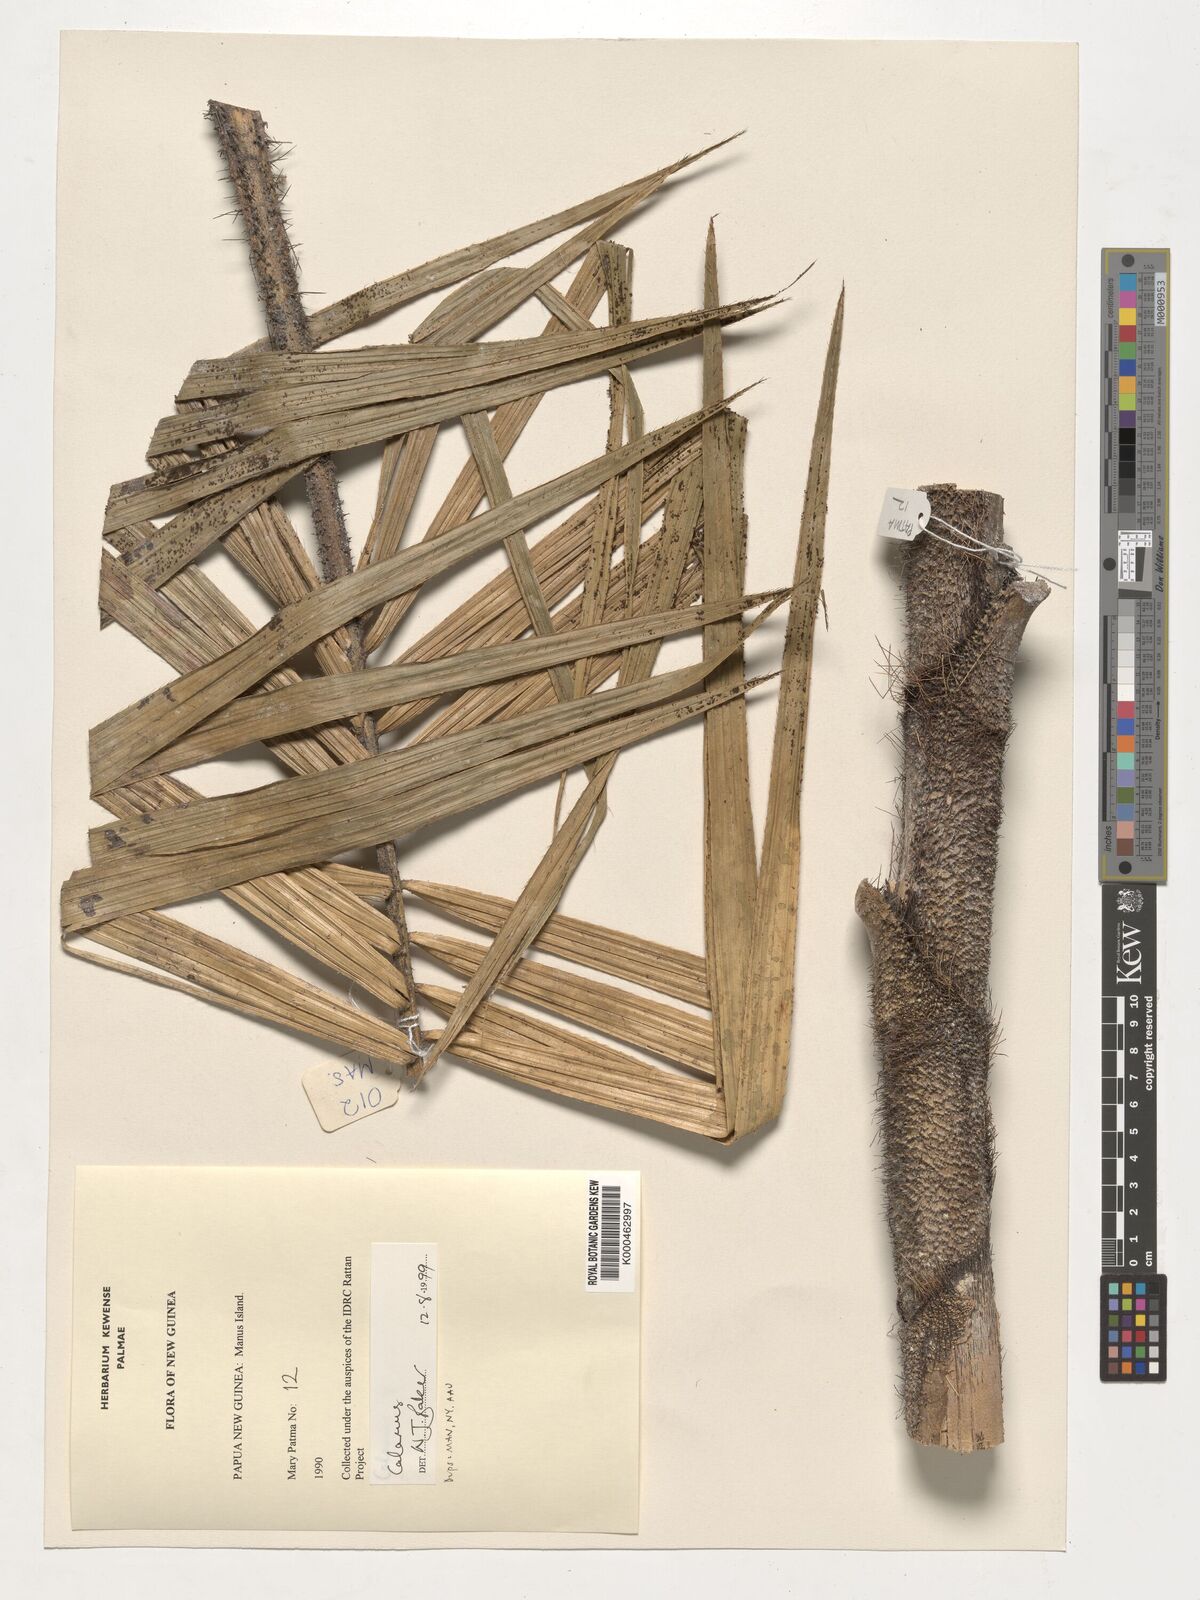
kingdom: Plantae
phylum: Tracheophyta
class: Liliopsida
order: Arecales
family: Arecaceae
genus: Calamus
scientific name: Calamus
